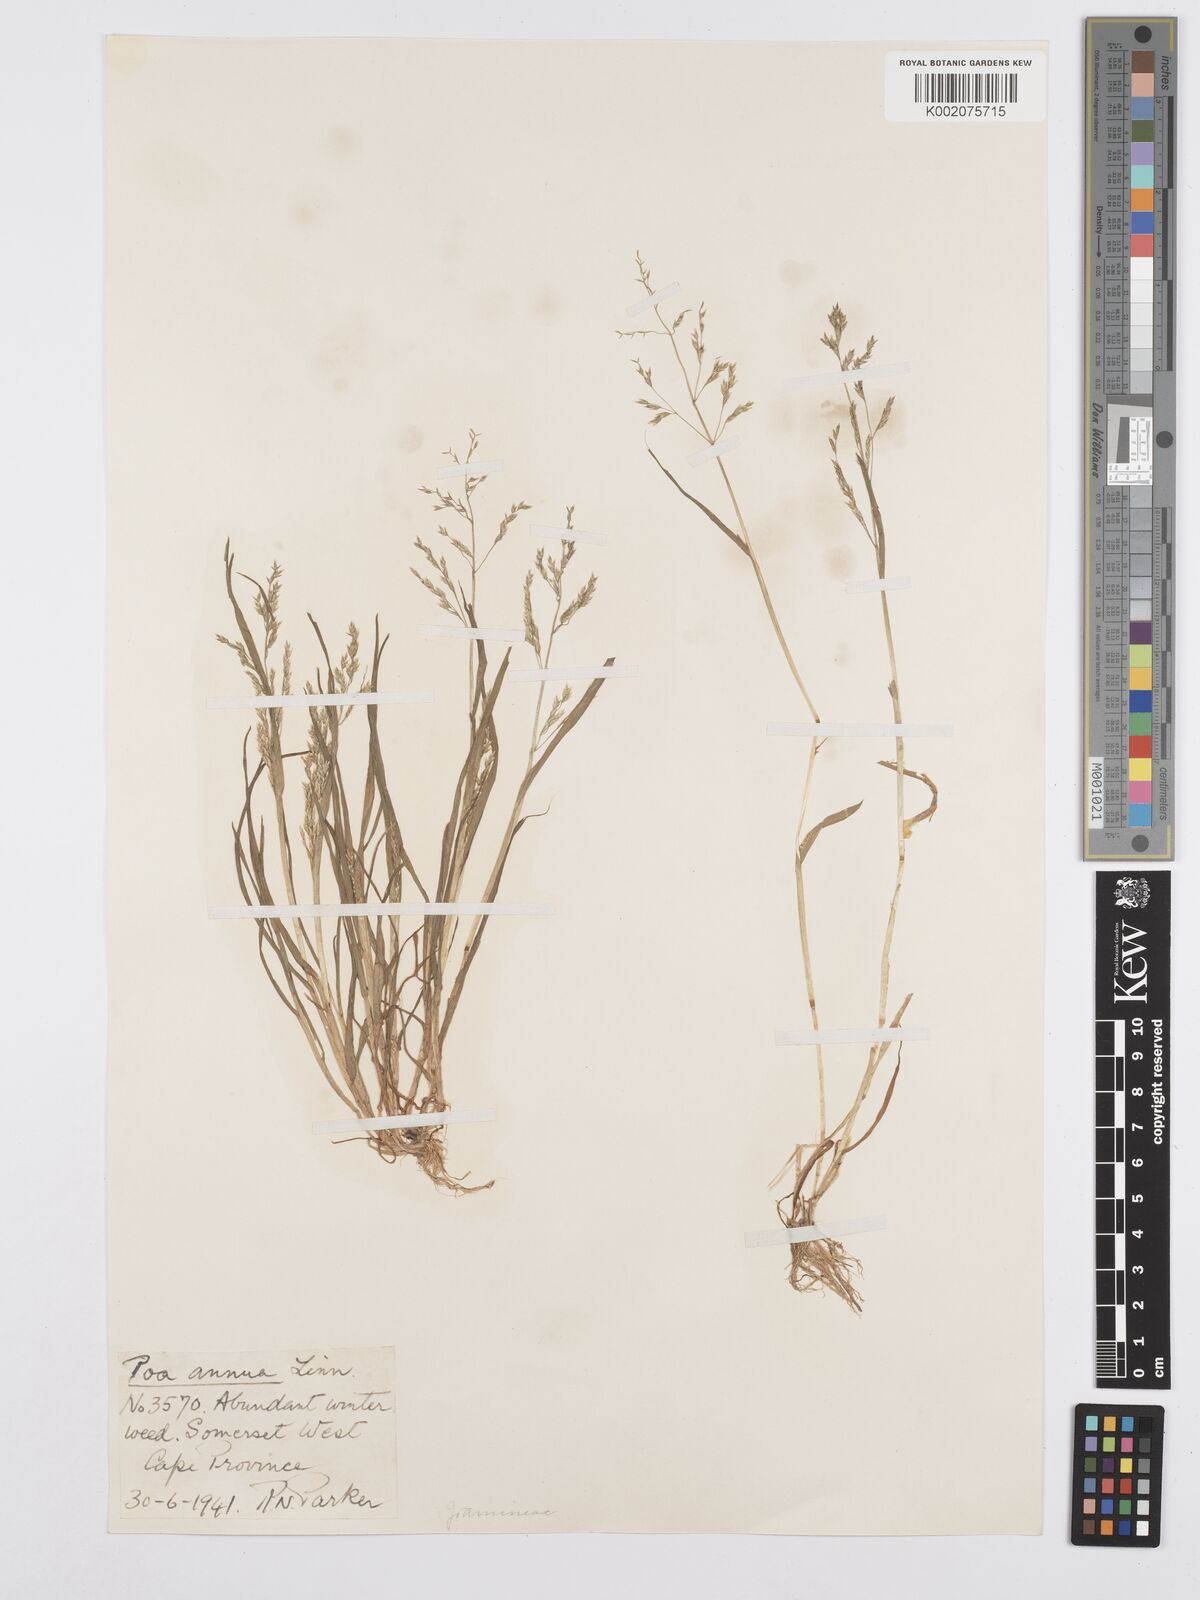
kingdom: Plantae
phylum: Tracheophyta
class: Liliopsida
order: Poales
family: Poaceae
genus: Poa
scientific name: Poa annua
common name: Annual bluegrass
